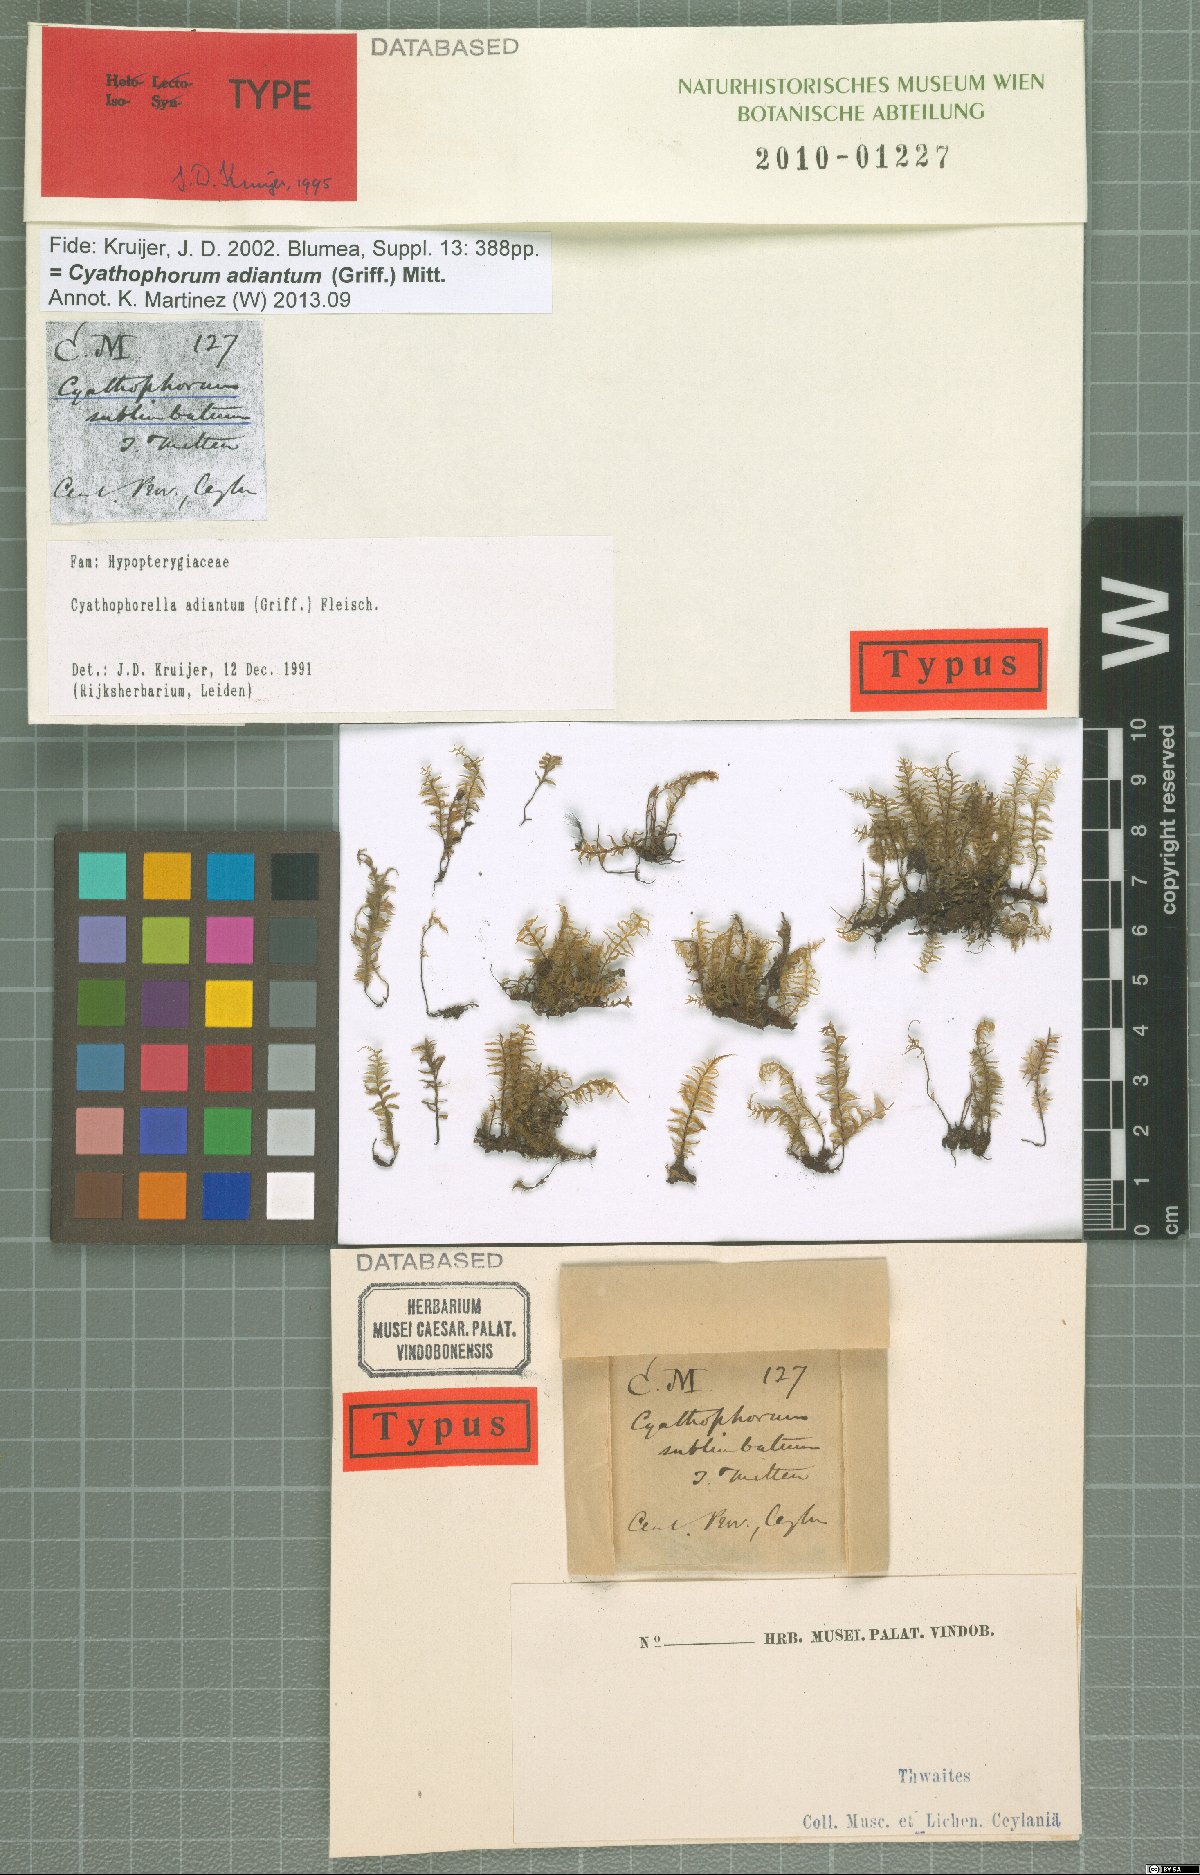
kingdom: Plantae
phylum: Bryophyta
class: Bryopsida
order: Hypopterygiales
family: Hypopterygiaceae
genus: Cyathophorum
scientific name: Cyathophorum adiantum
